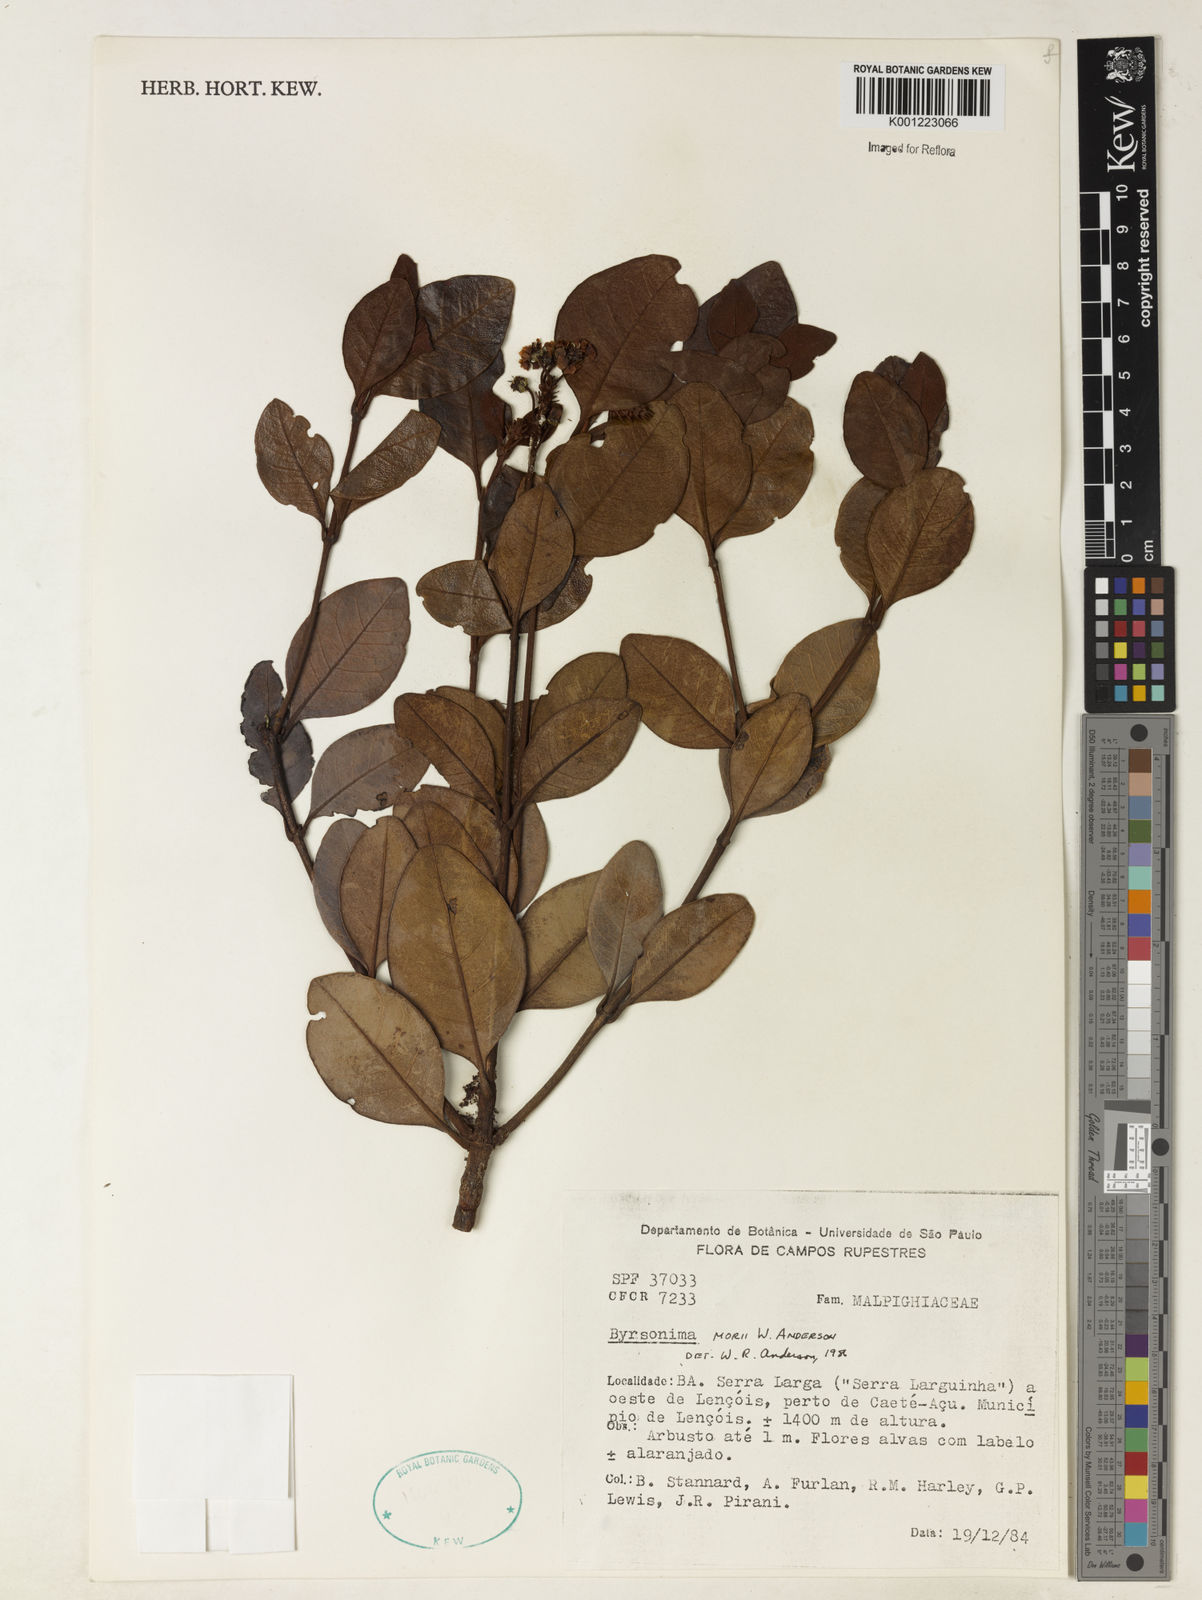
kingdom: Plantae
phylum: Tracheophyta
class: Magnoliopsida
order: Malpighiales
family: Malpighiaceae
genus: Byrsonima
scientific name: Byrsonima morii
